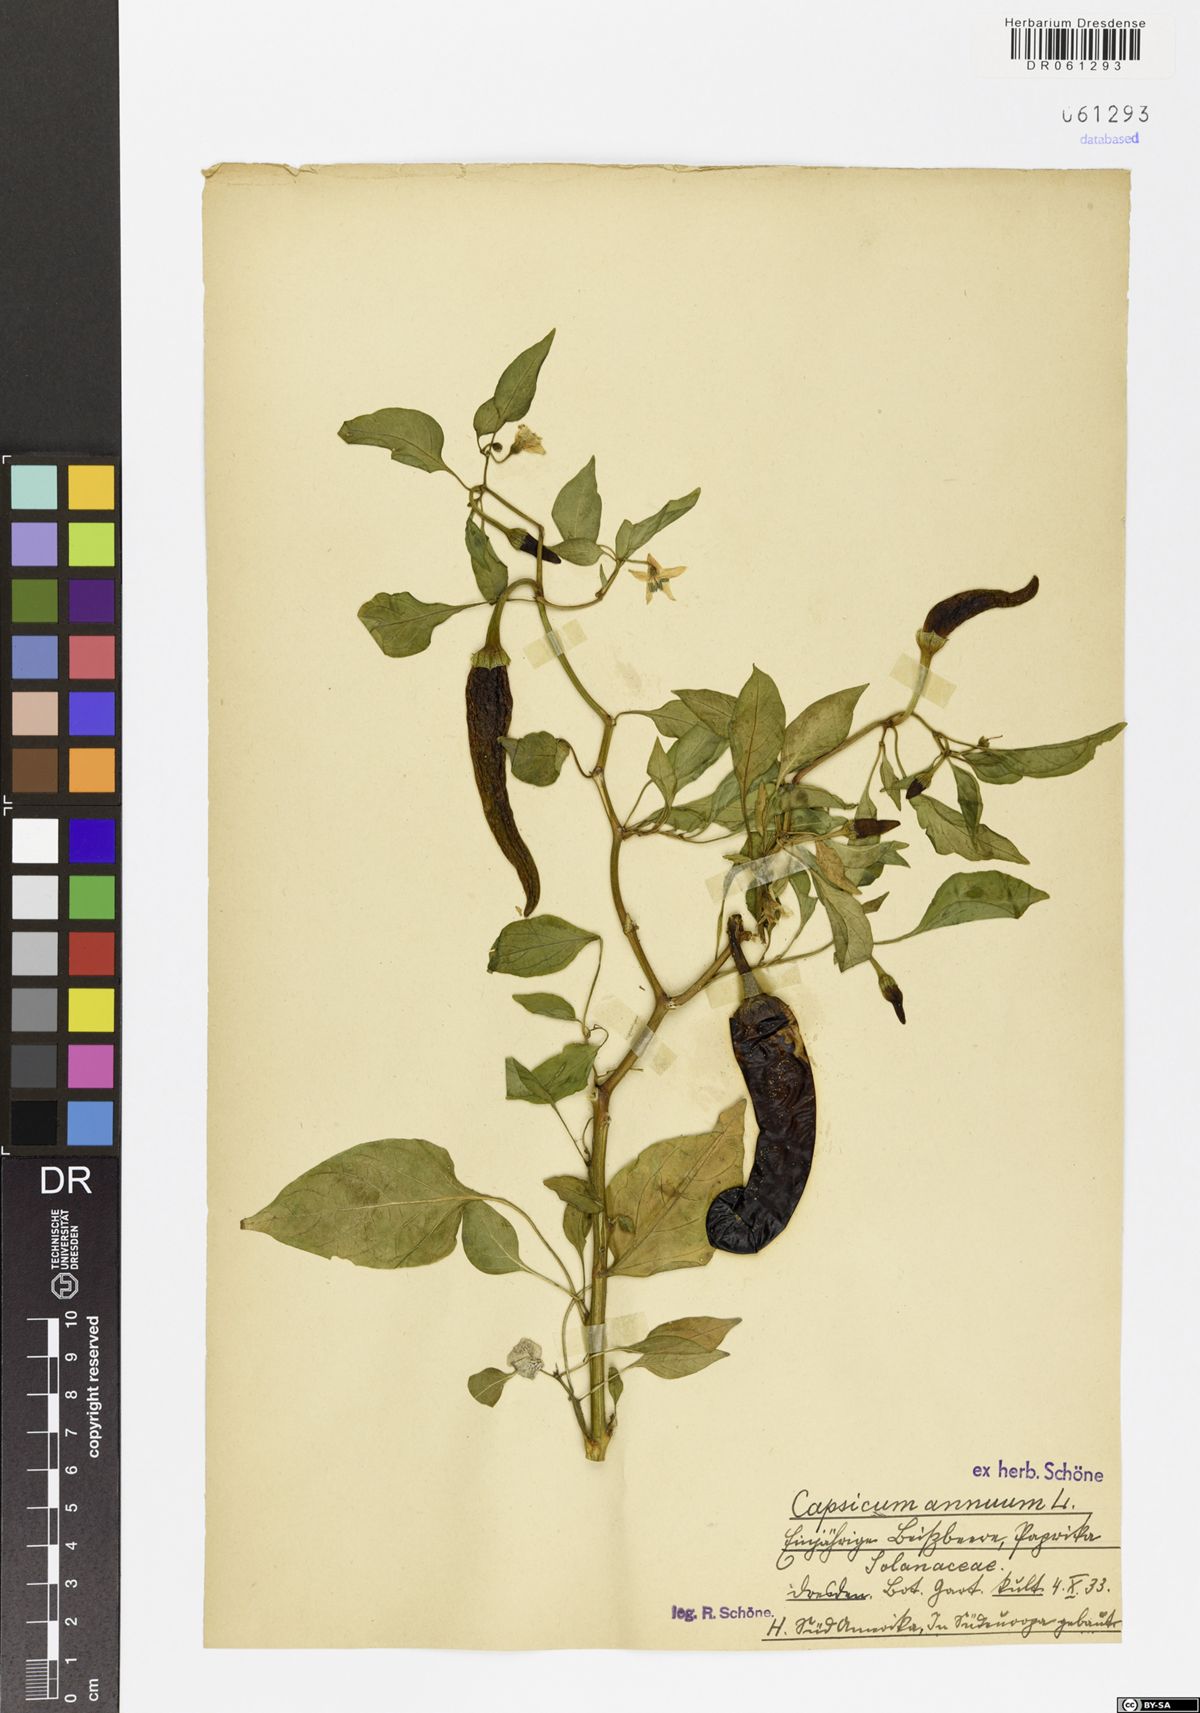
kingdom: Plantae
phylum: Tracheophyta
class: Magnoliopsida
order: Solanales
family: Solanaceae
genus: Capsicum
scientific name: Capsicum annuum
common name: Sweet pepper
